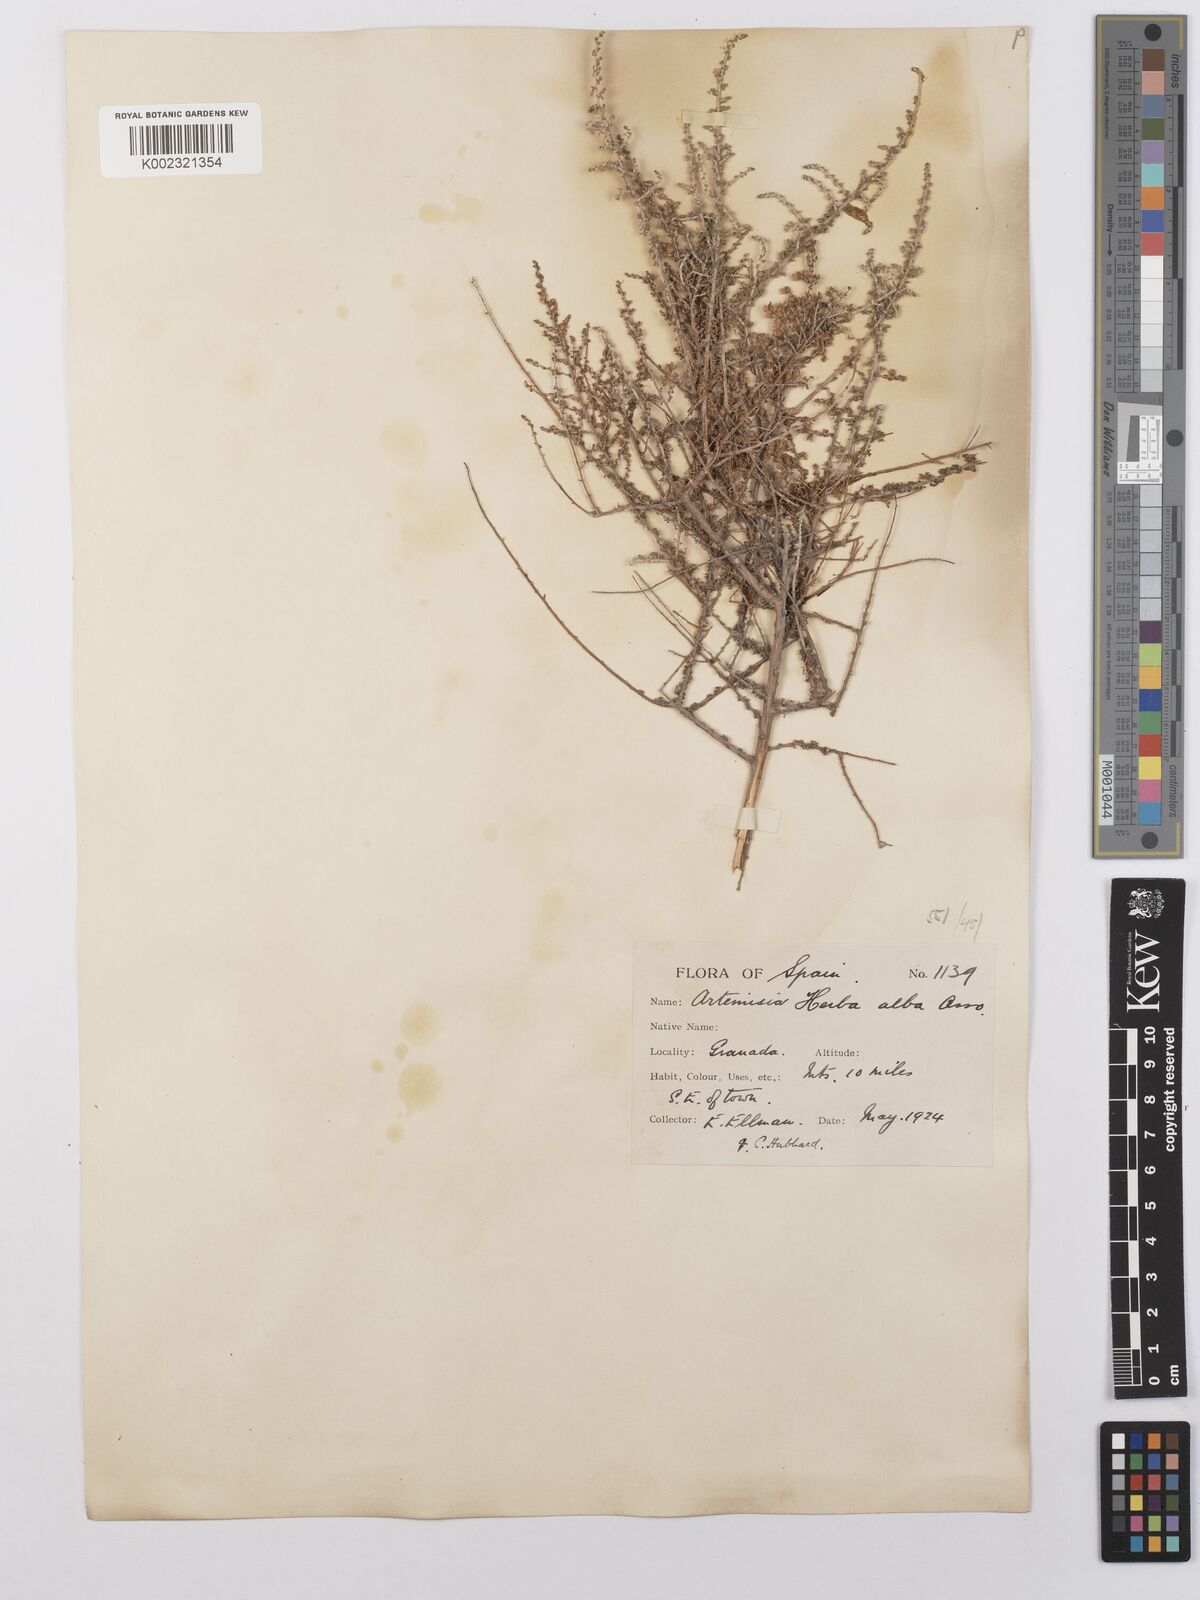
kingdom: Plantae
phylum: Tracheophyta
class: Magnoliopsida
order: Asterales
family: Asteraceae
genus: Artemisia
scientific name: Artemisia herba-alba
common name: White wormwood
